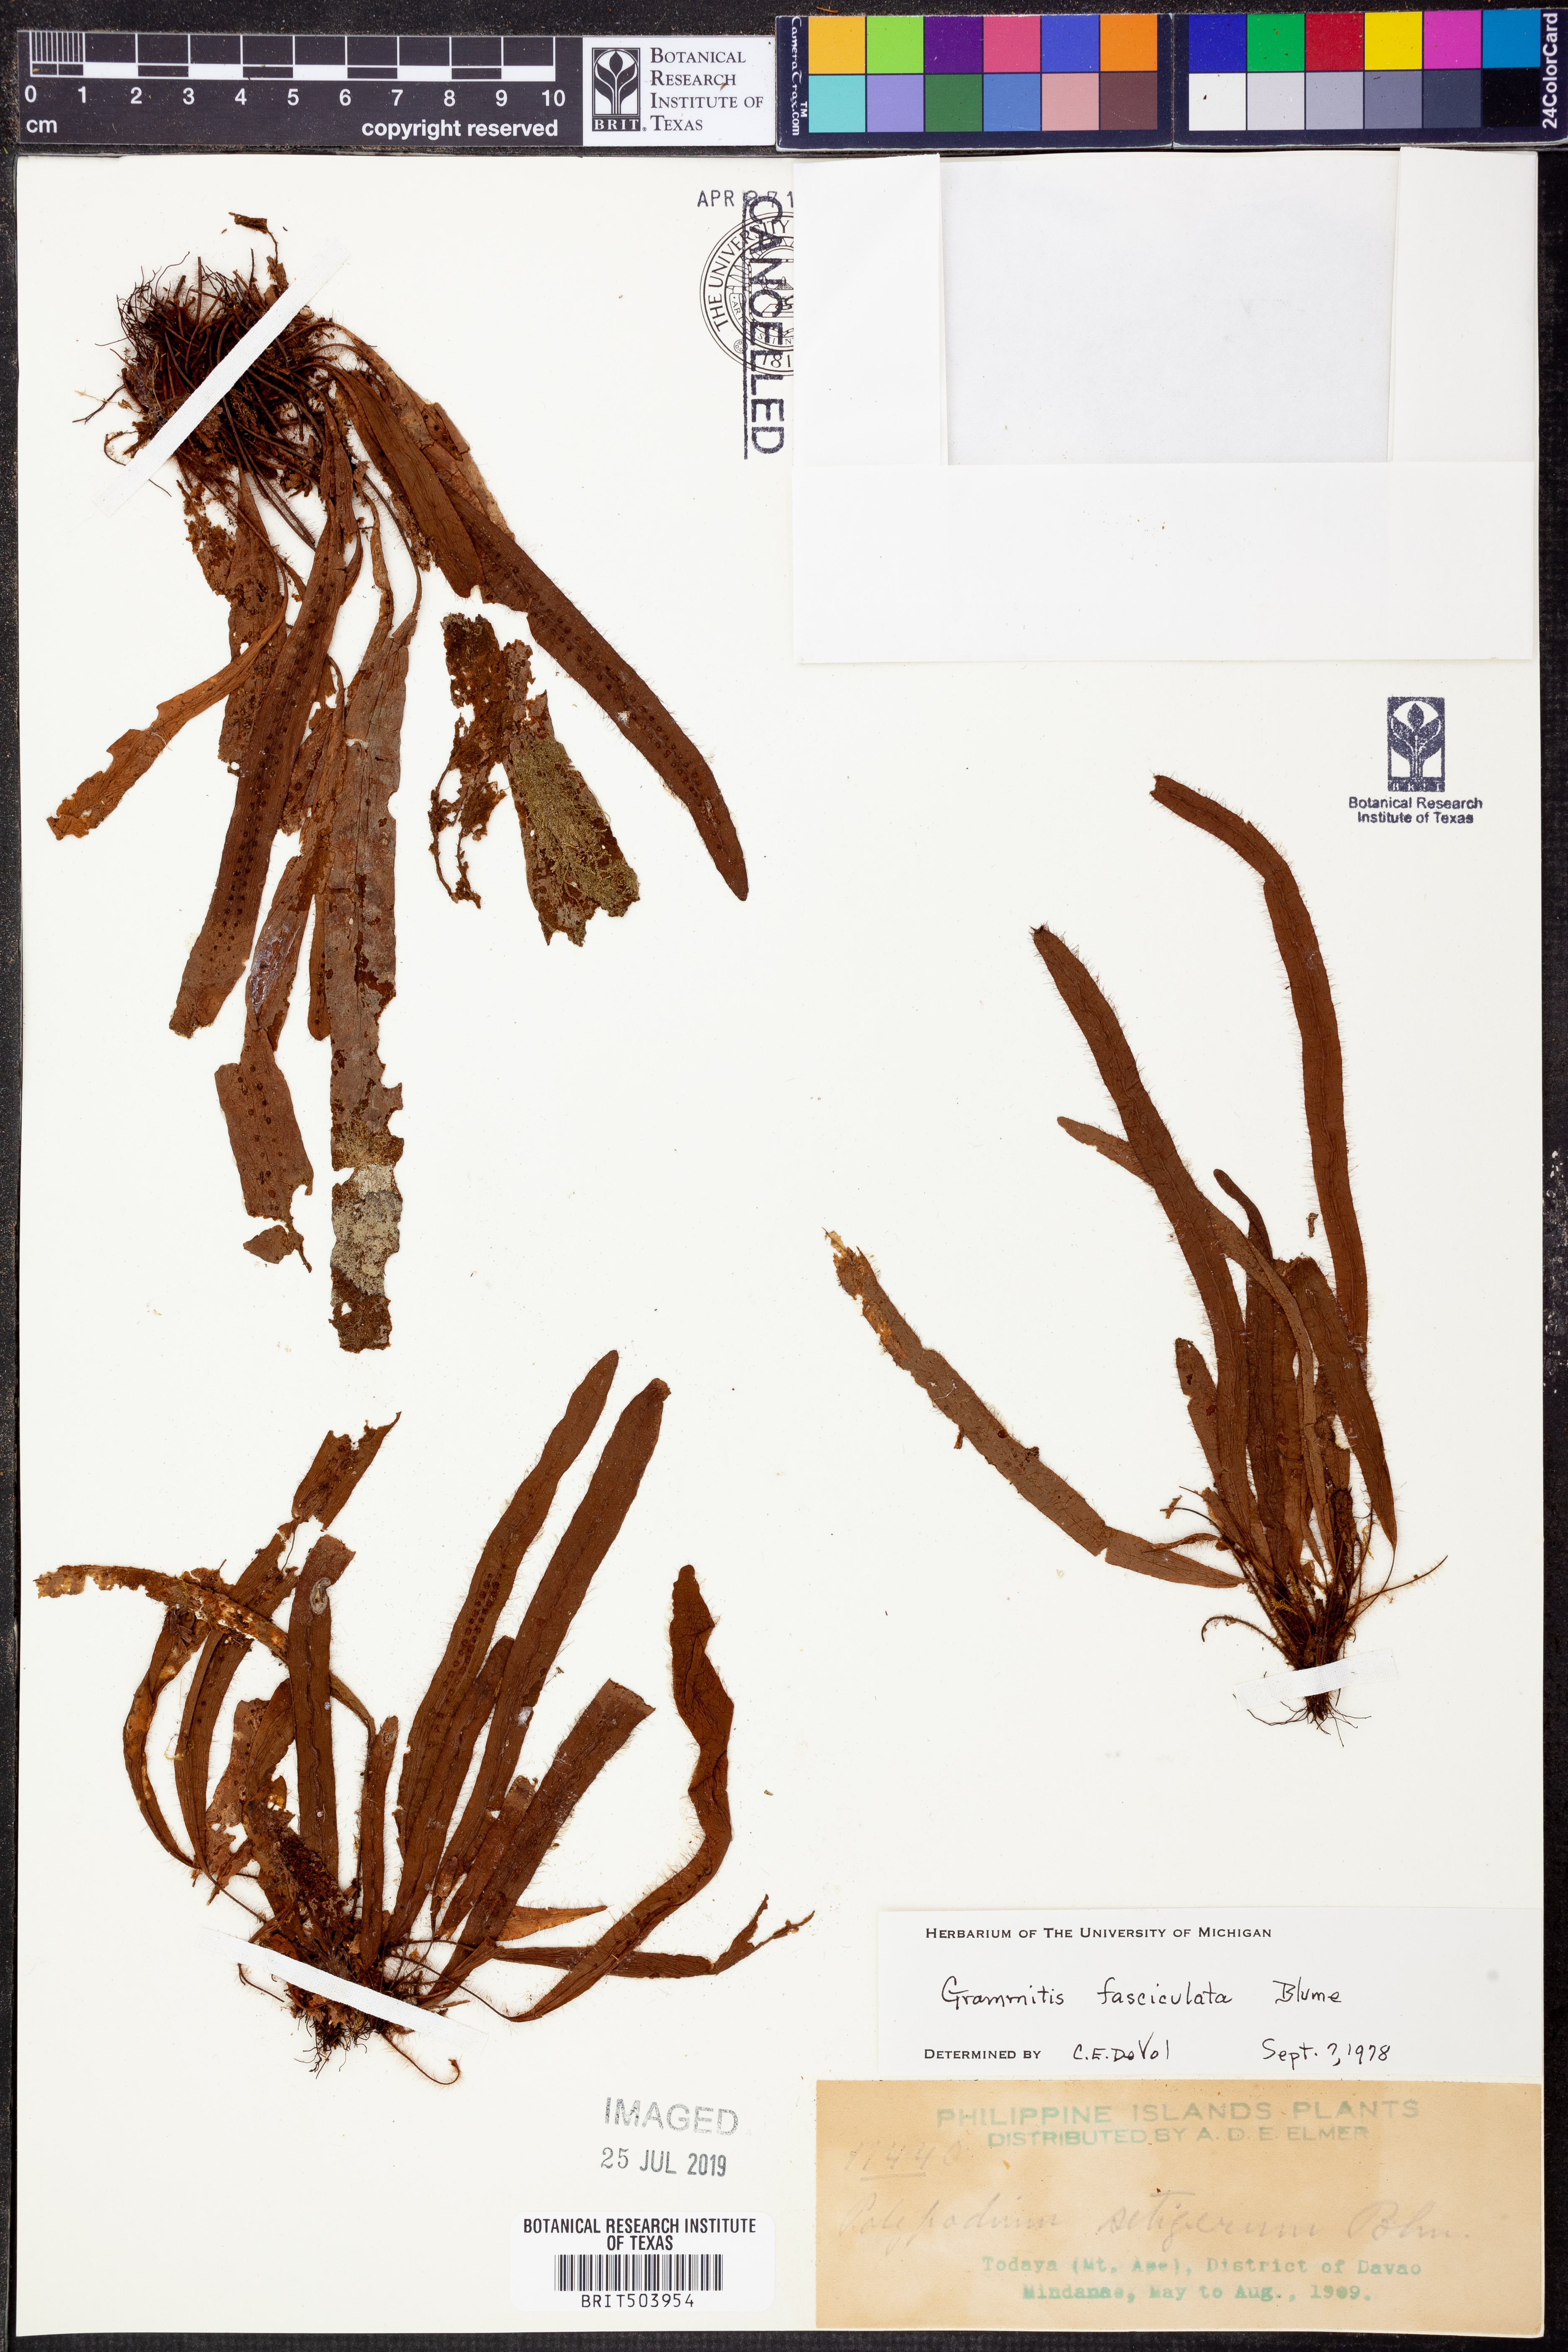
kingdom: Plantae
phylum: Tracheophyta
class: Polypodiopsida
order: Polypodiales
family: Polypodiaceae
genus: Oreogrammitis
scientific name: Oreogrammitis setigera
